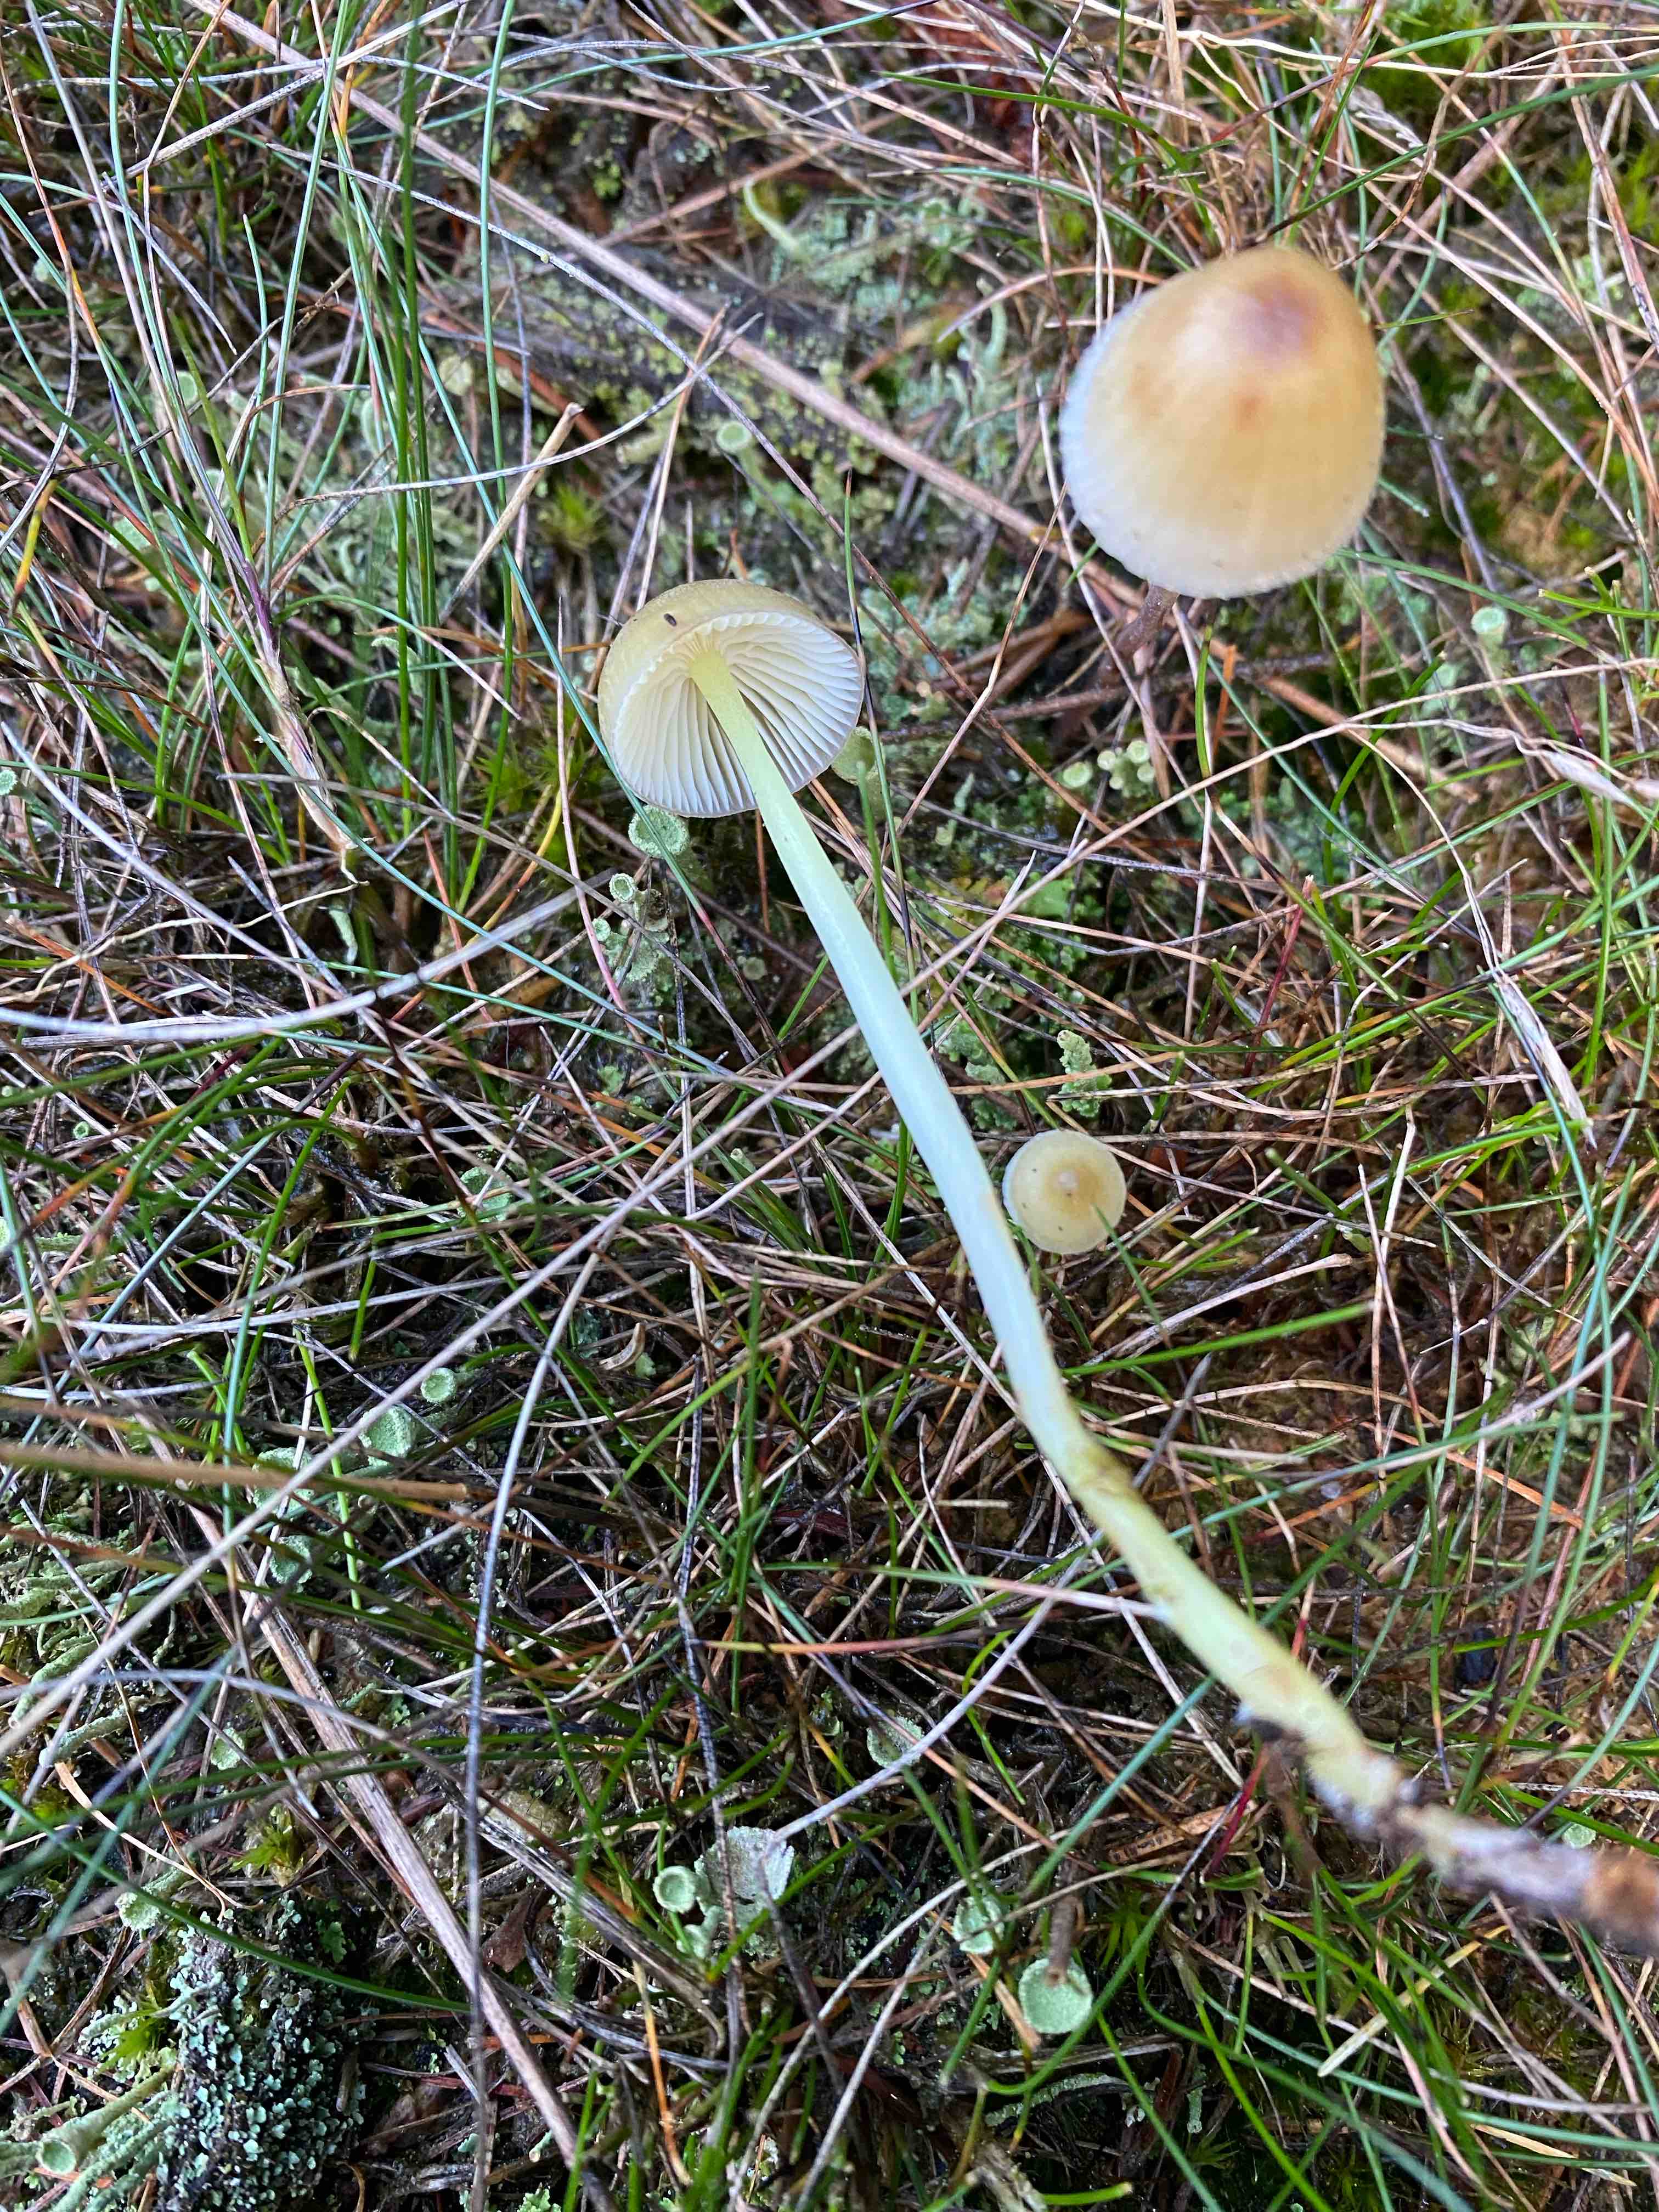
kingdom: Fungi
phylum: Basidiomycota
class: Agaricomycetes
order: Agaricales
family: Mycenaceae
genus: Mycena
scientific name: Mycena epipterygia
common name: gulstokket huesvamp
